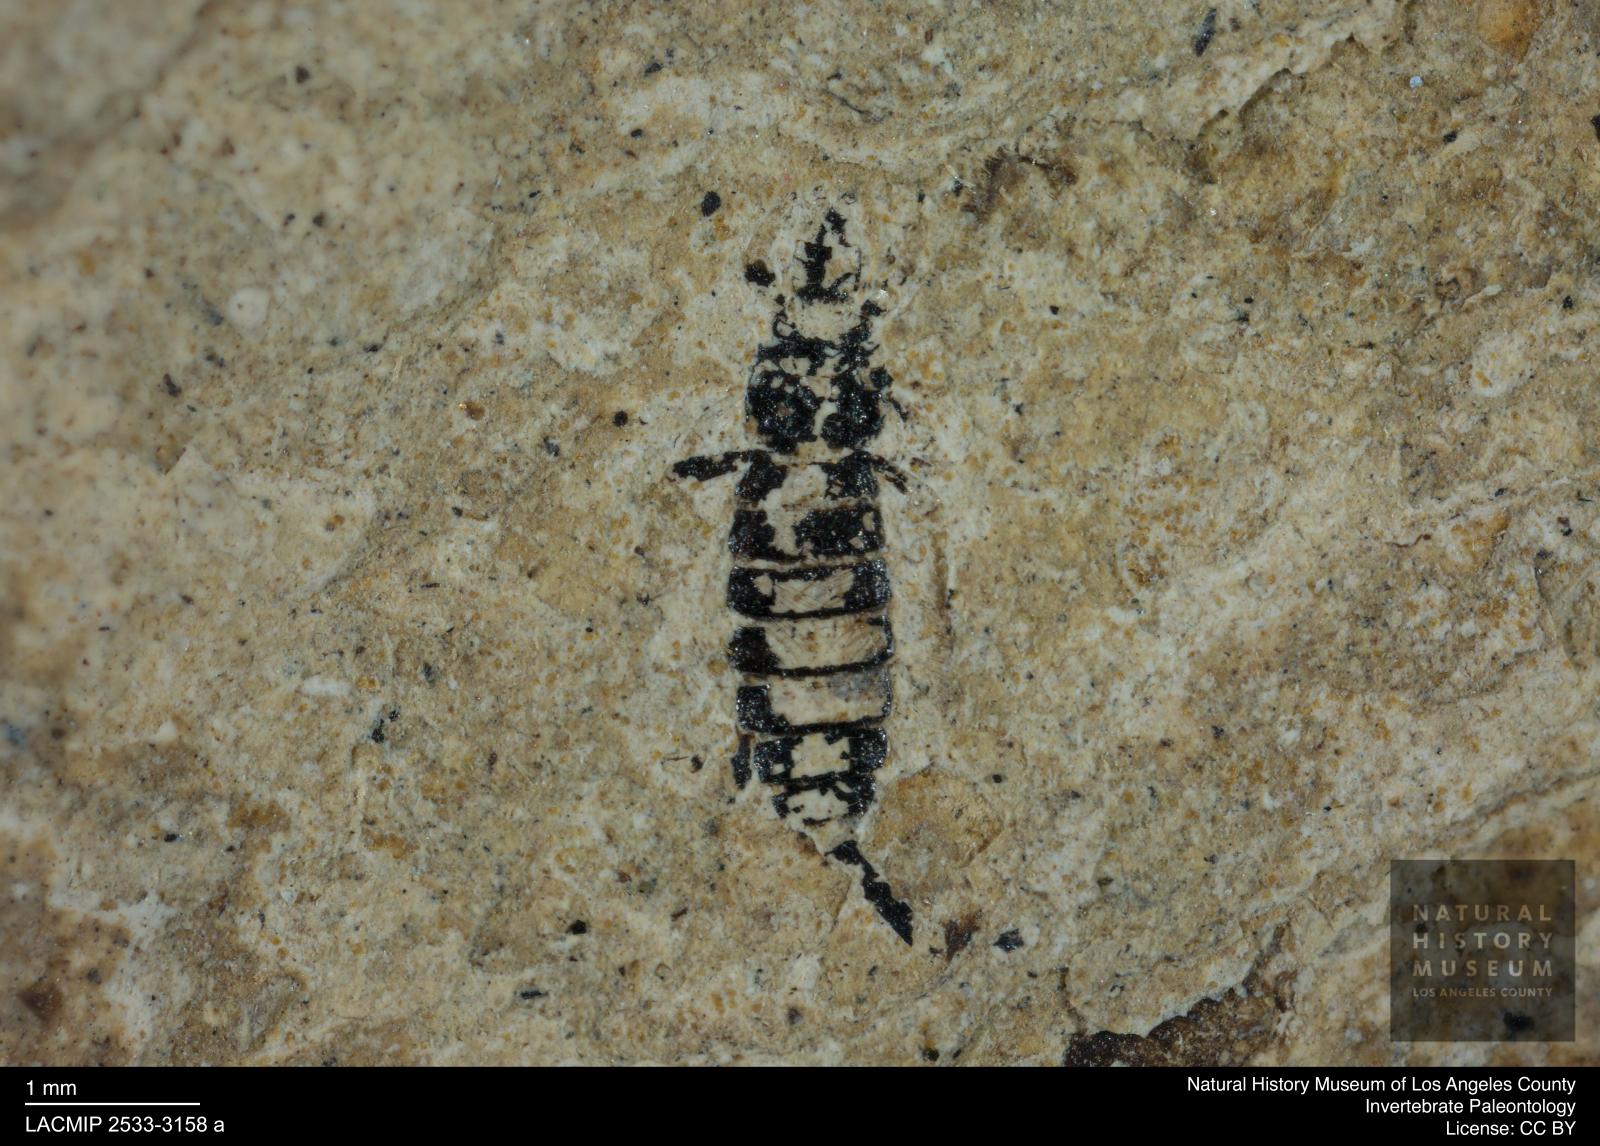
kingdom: Animalia
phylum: Arthropoda
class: Insecta
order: Thysanoptera
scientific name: Thysanoptera
